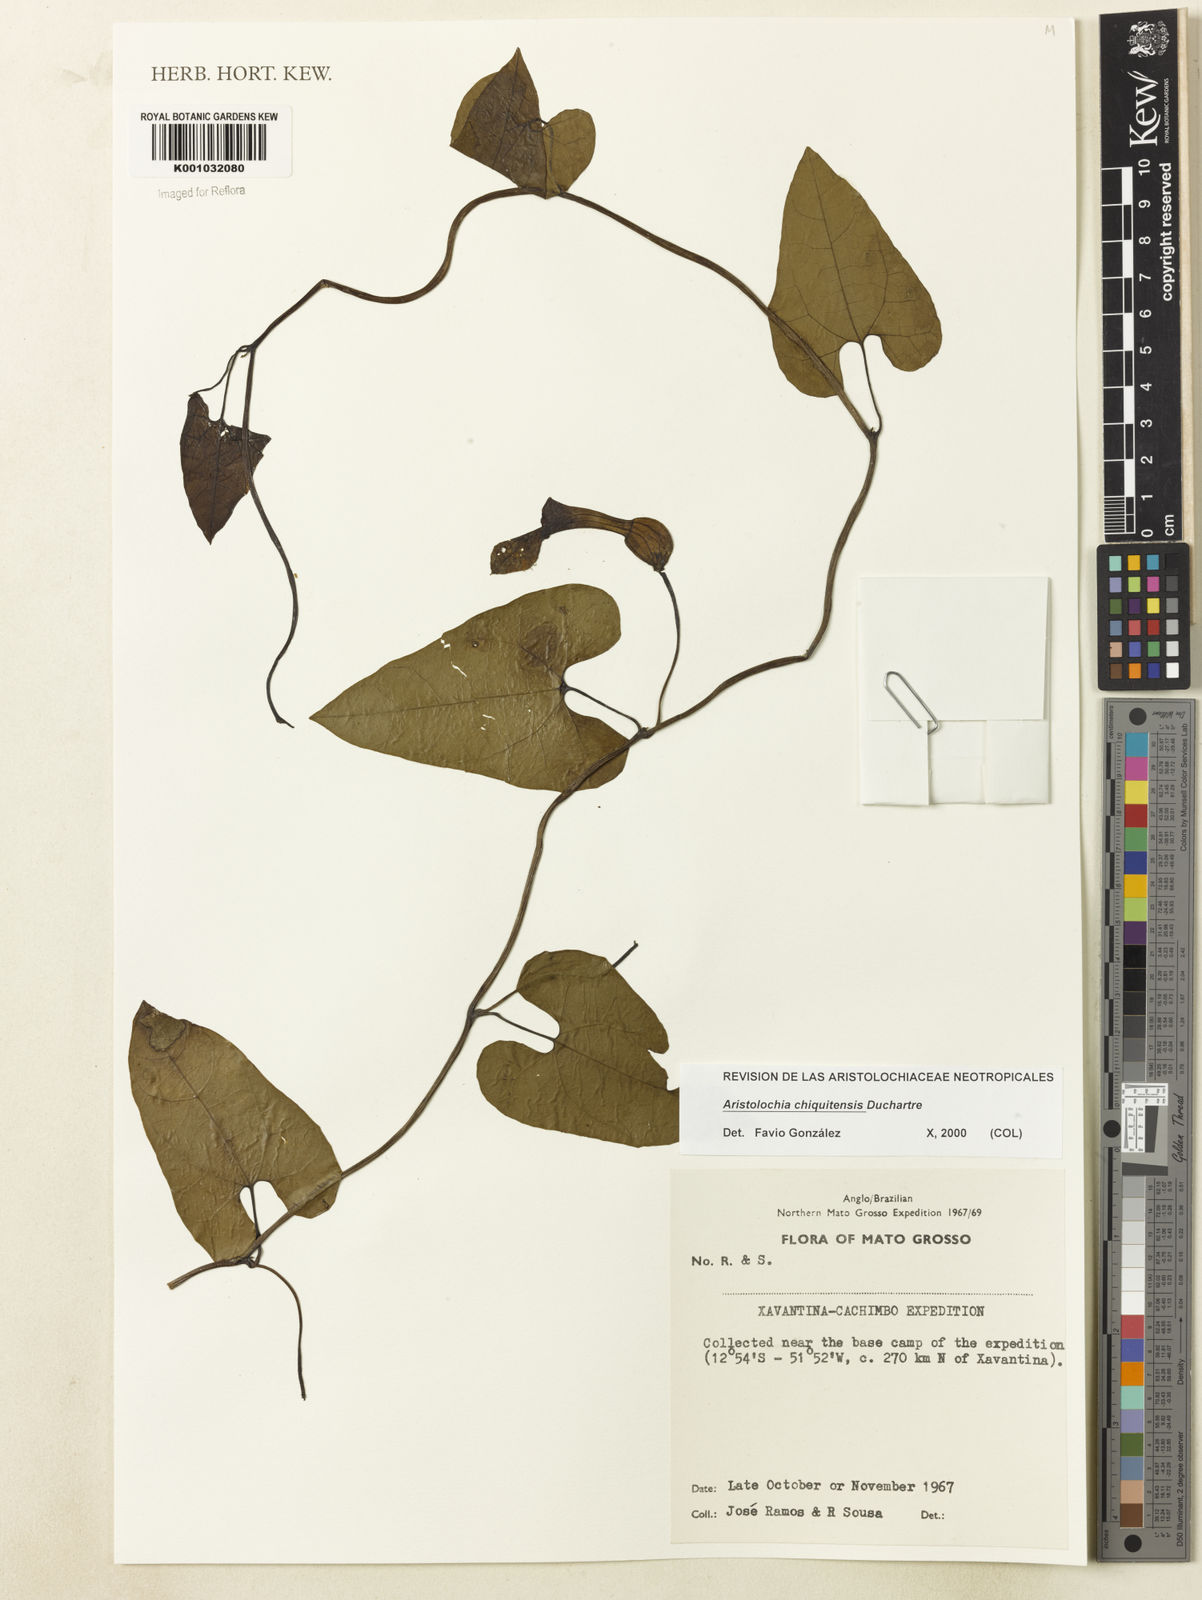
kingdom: Plantae
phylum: Tracheophyta
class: Magnoliopsida
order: Piperales
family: Aristolochiaceae
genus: Aristolochia
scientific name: Aristolochia chiquitensis
